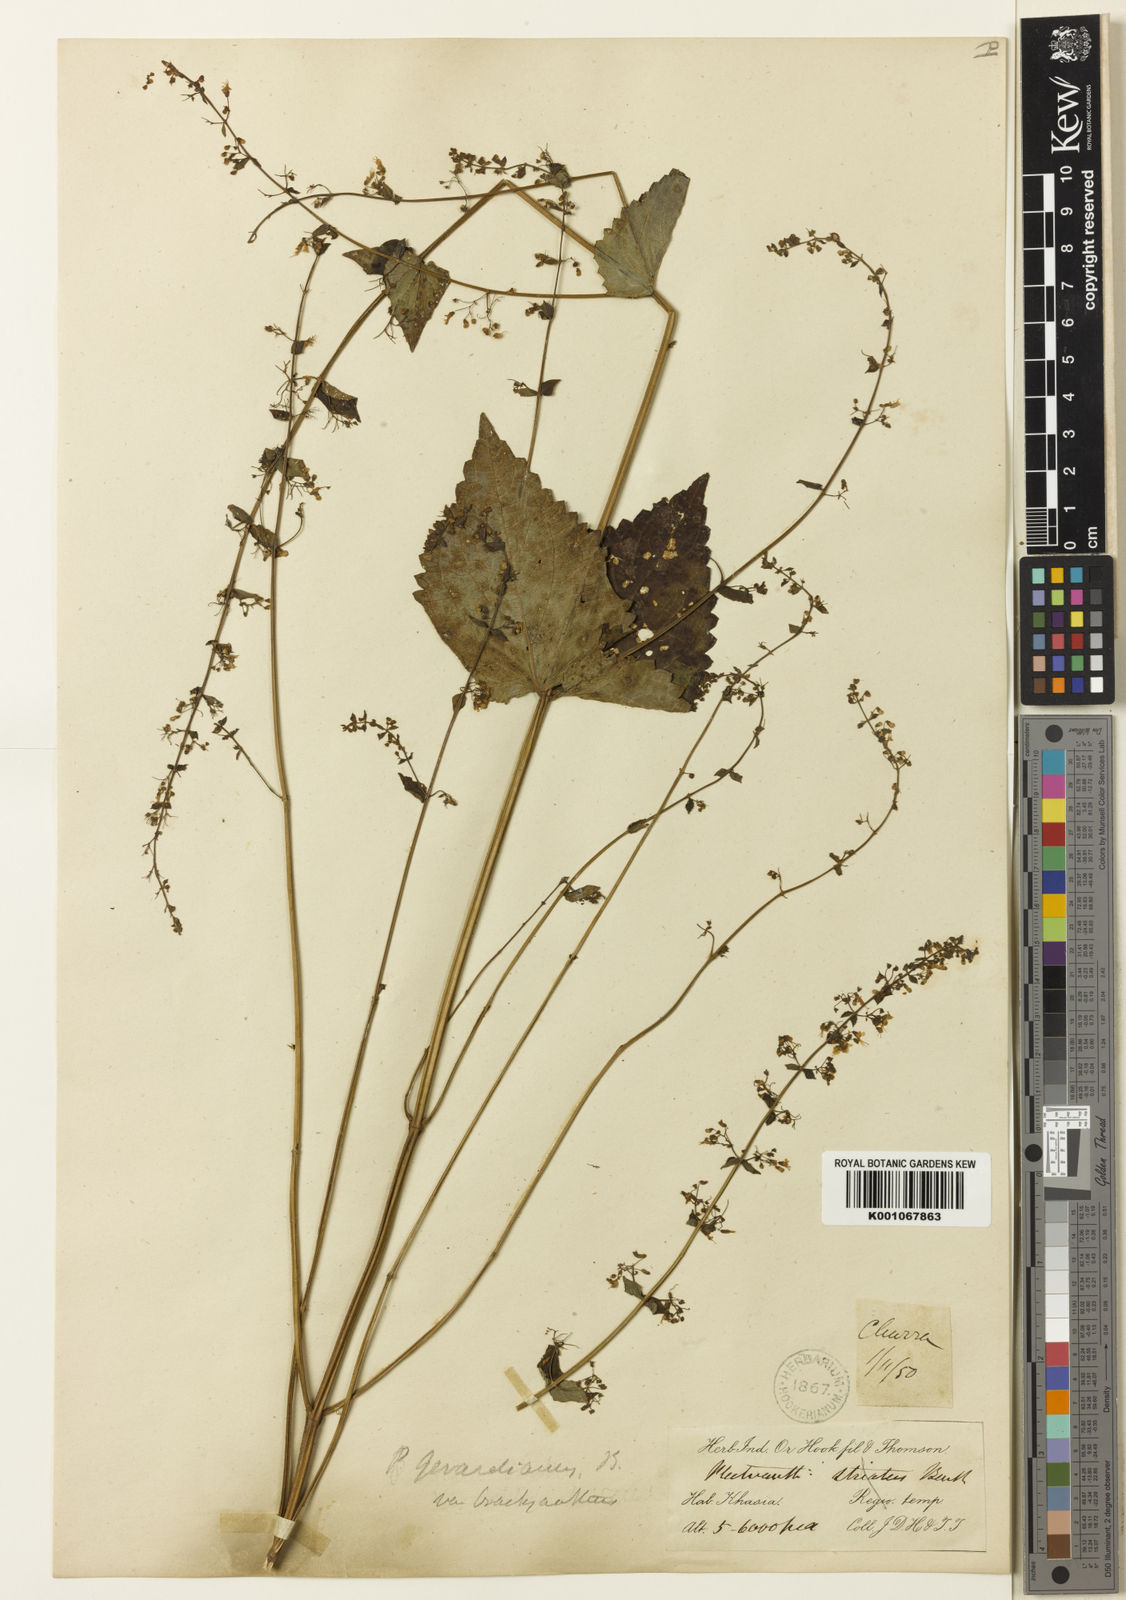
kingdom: Plantae
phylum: Tracheophyta
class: Magnoliopsida
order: Lamiales
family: Lamiaceae
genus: Isodon
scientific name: Isodon lophanthoides
